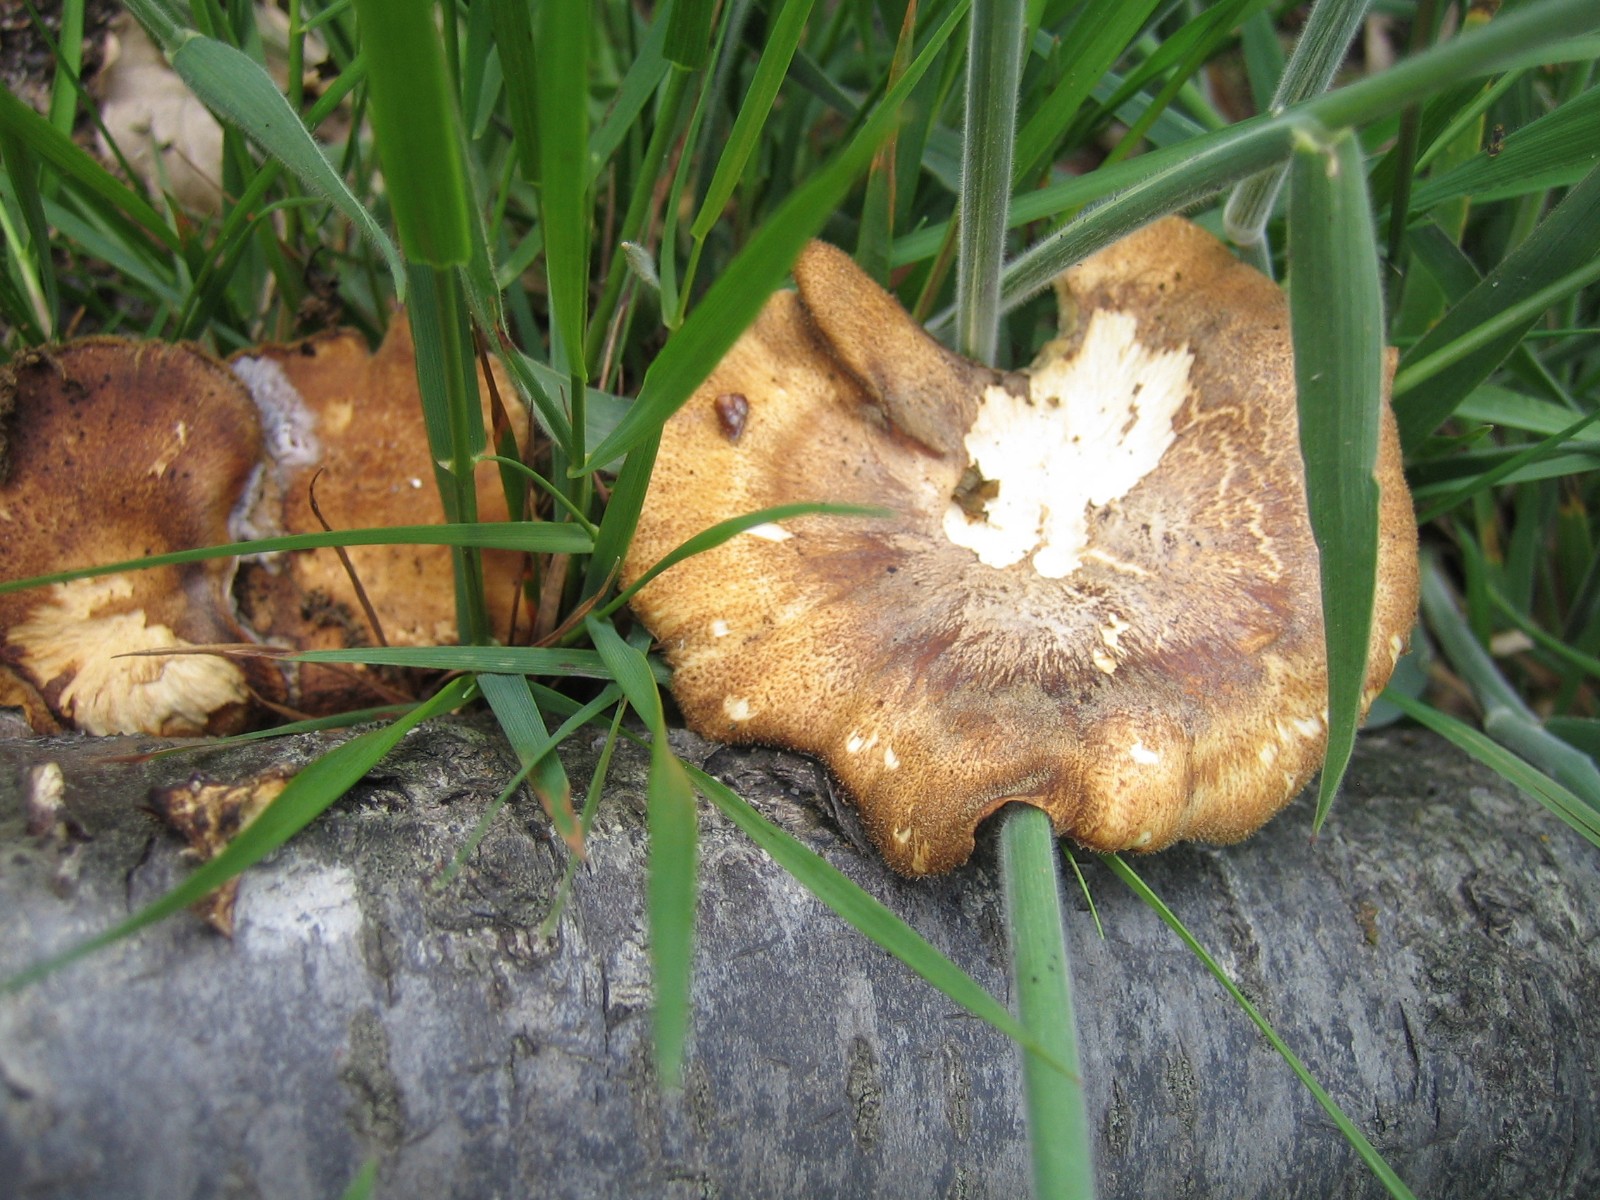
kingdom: Fungi
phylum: Basidiomycota
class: Agaricomycetes
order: Polyporales
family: Polyporaceae
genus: Lentinus
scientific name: Lentinus substrictus
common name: forårs-stilkporesvamp
